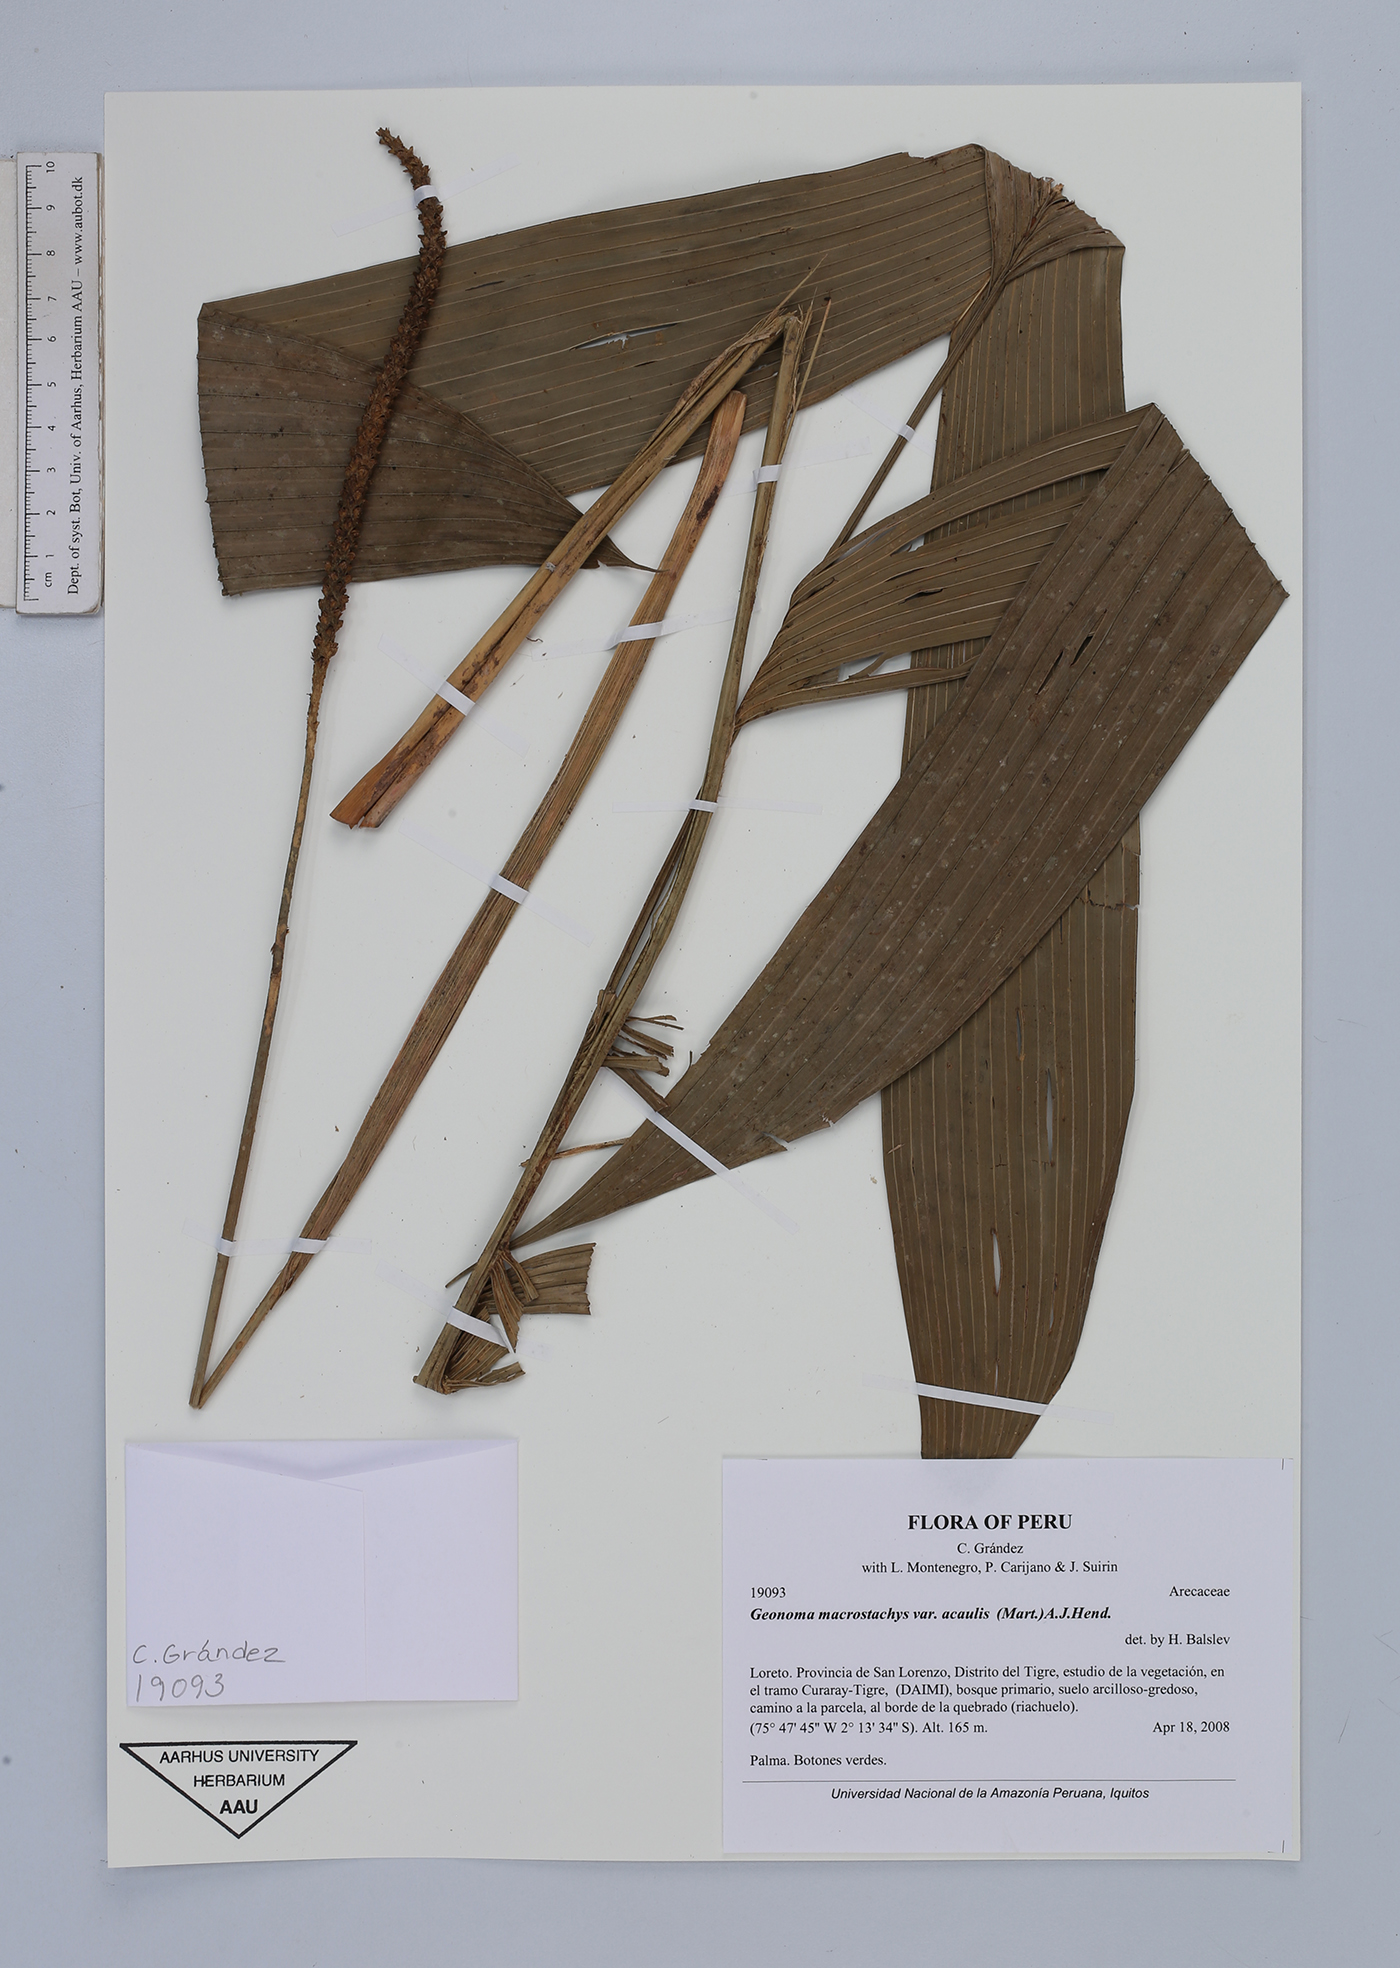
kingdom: Plantae
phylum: Tracheophyta
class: Liliopsida
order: Arecales
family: Arecaceae
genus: Geonoma
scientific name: Geonoma macrostachys
